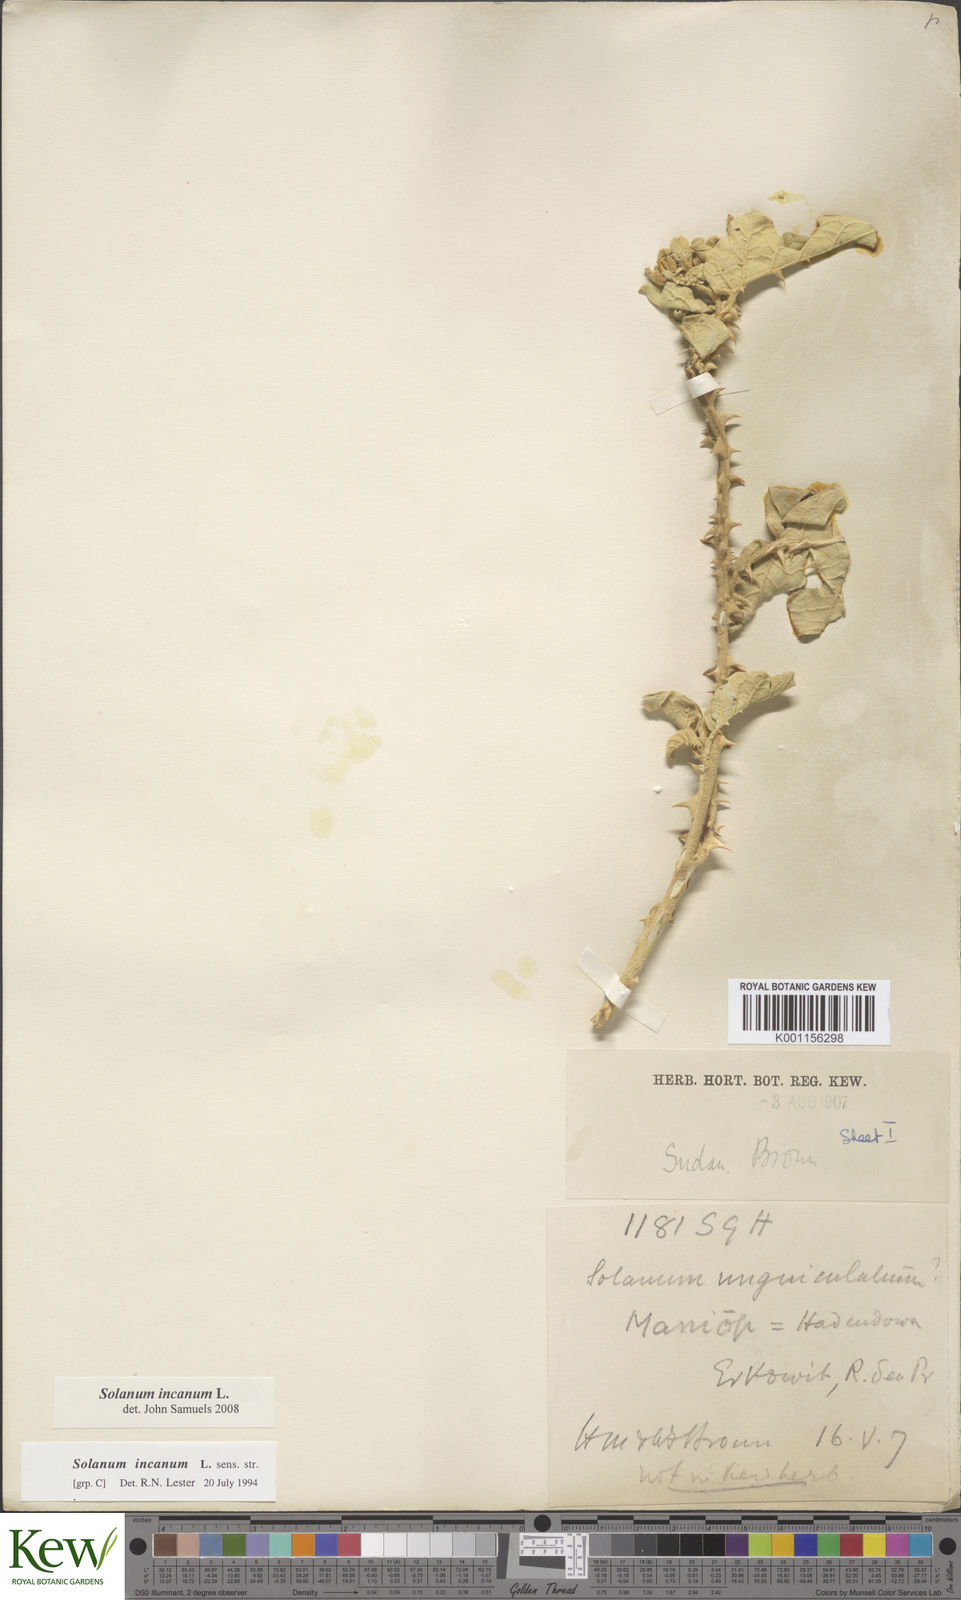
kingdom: Plantae
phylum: Tracheophyta
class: Magnoliopsida
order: Solanales
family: Solanaceae
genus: Solanum
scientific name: Solanum incanum
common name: Bitter apple
